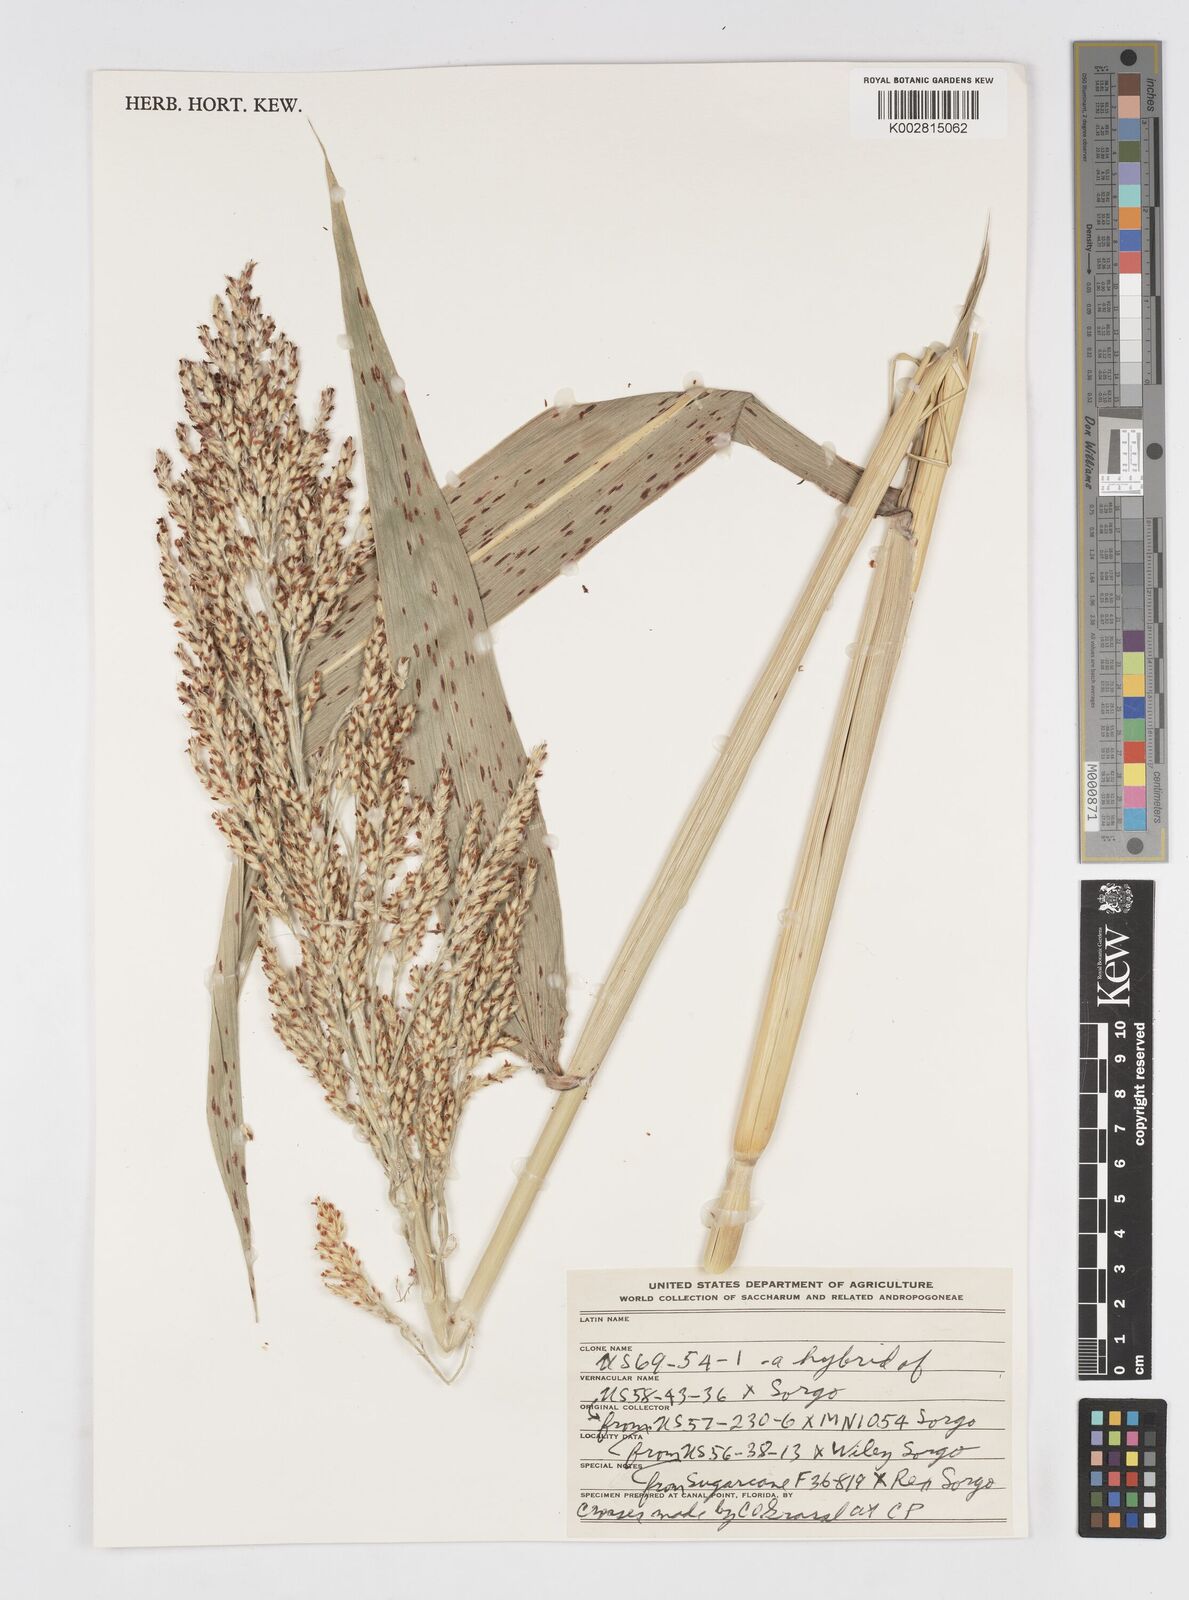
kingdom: Plantae
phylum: Tracheophyta
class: Liliopsida
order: Poales
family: Poaceae
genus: Saccharum
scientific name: Saccharum
